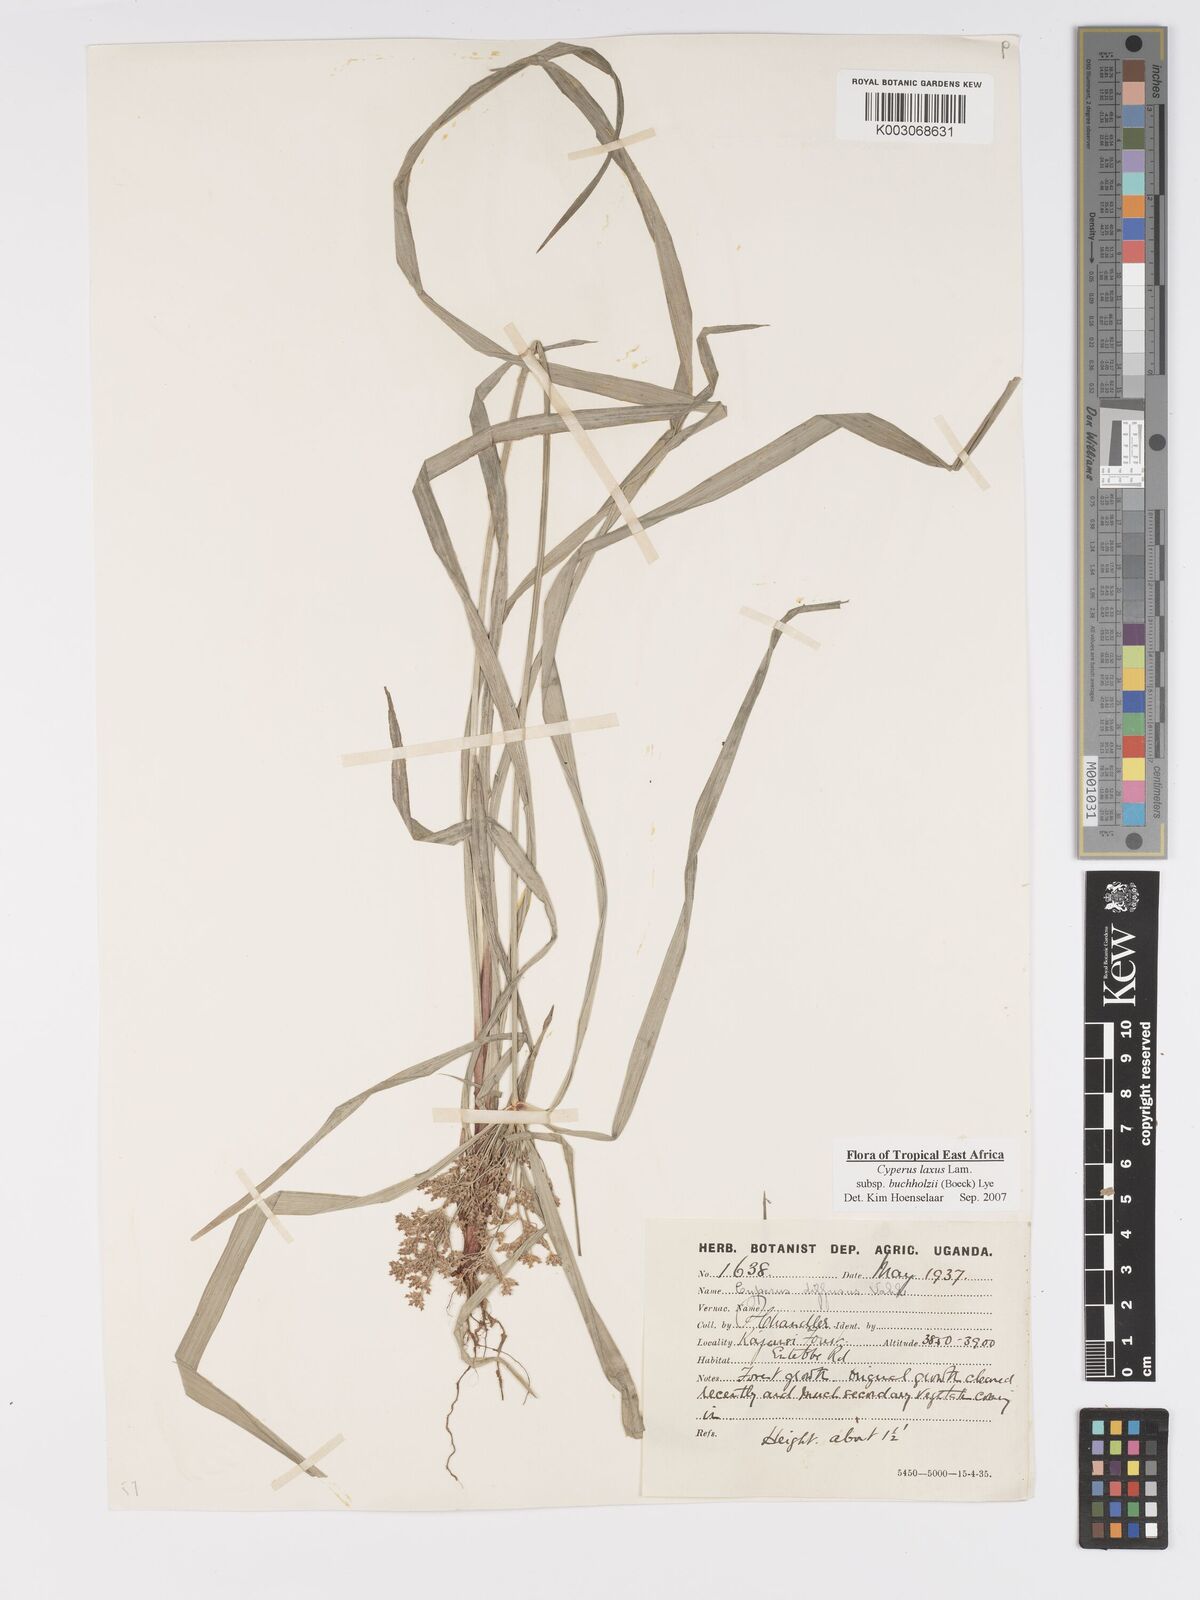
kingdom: Plantae
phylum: Tracheophyta
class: Liliopsida
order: Poales
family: Cyperaceae
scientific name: Cyperaceae
